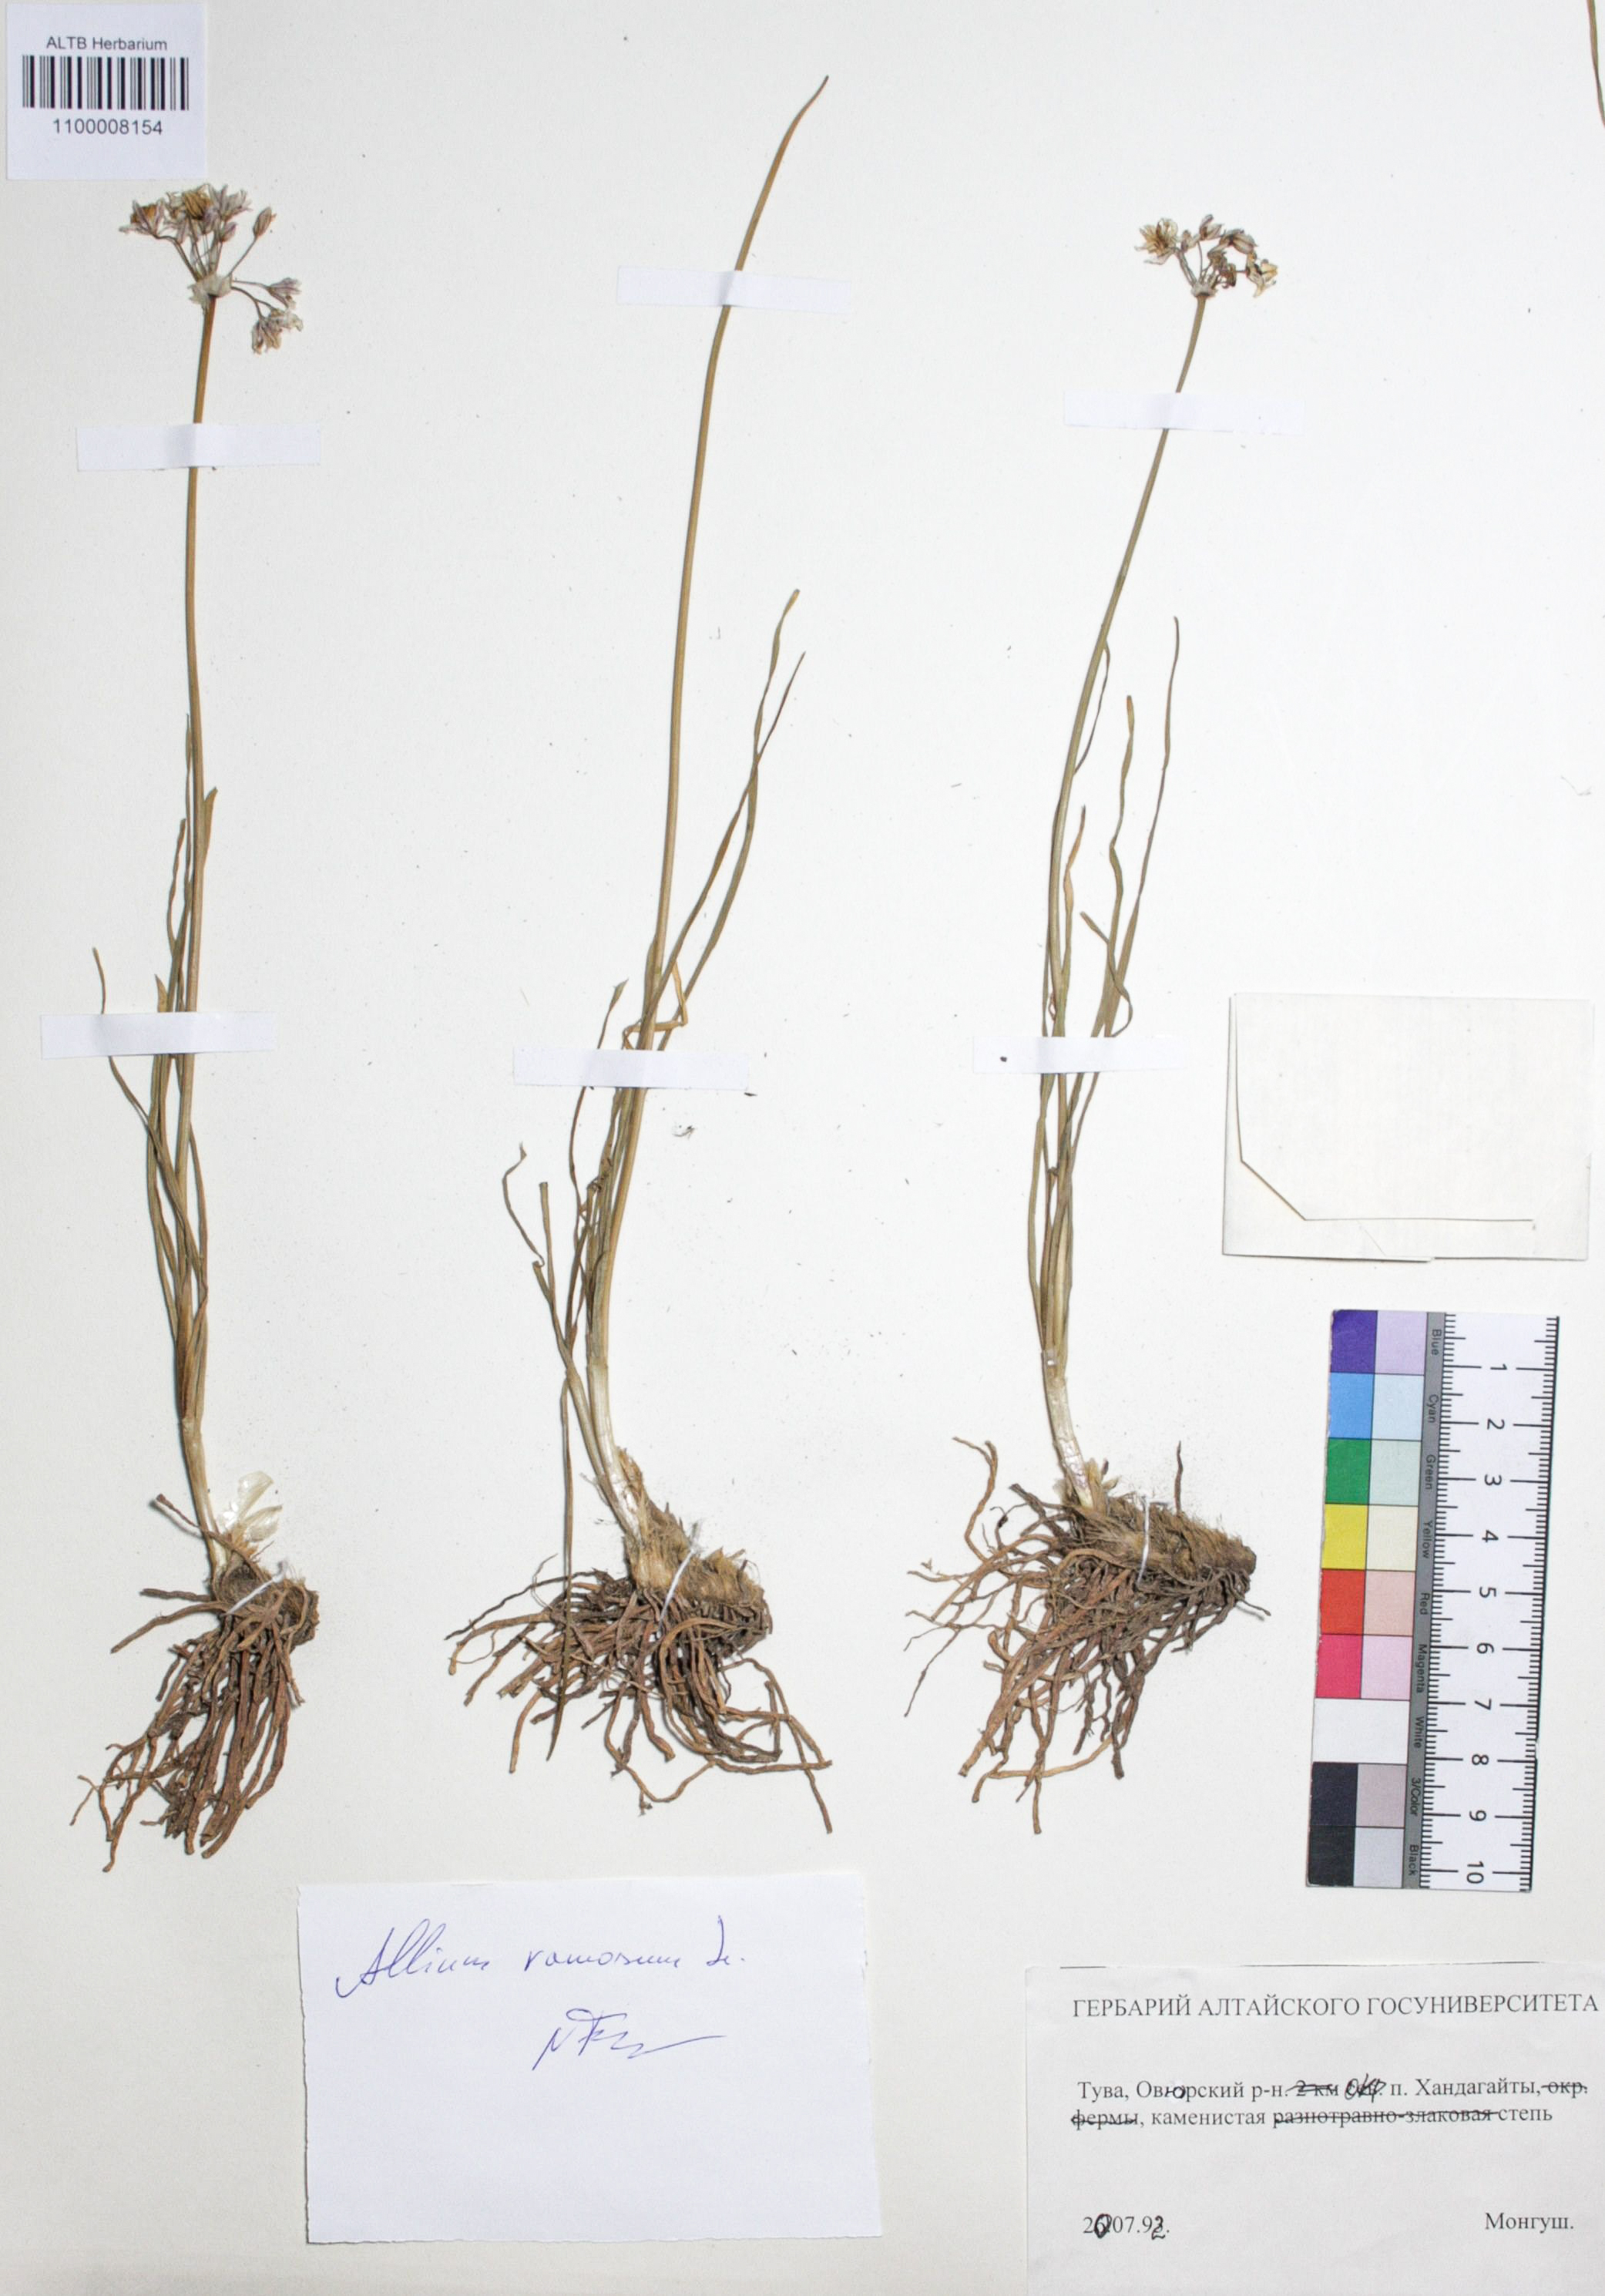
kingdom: Plantae
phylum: Tracheophyta
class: Liliopsida
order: Asparagales
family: Amaryllidaceae
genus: Allium
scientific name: Allium ramosum
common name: Fragrant garlic
